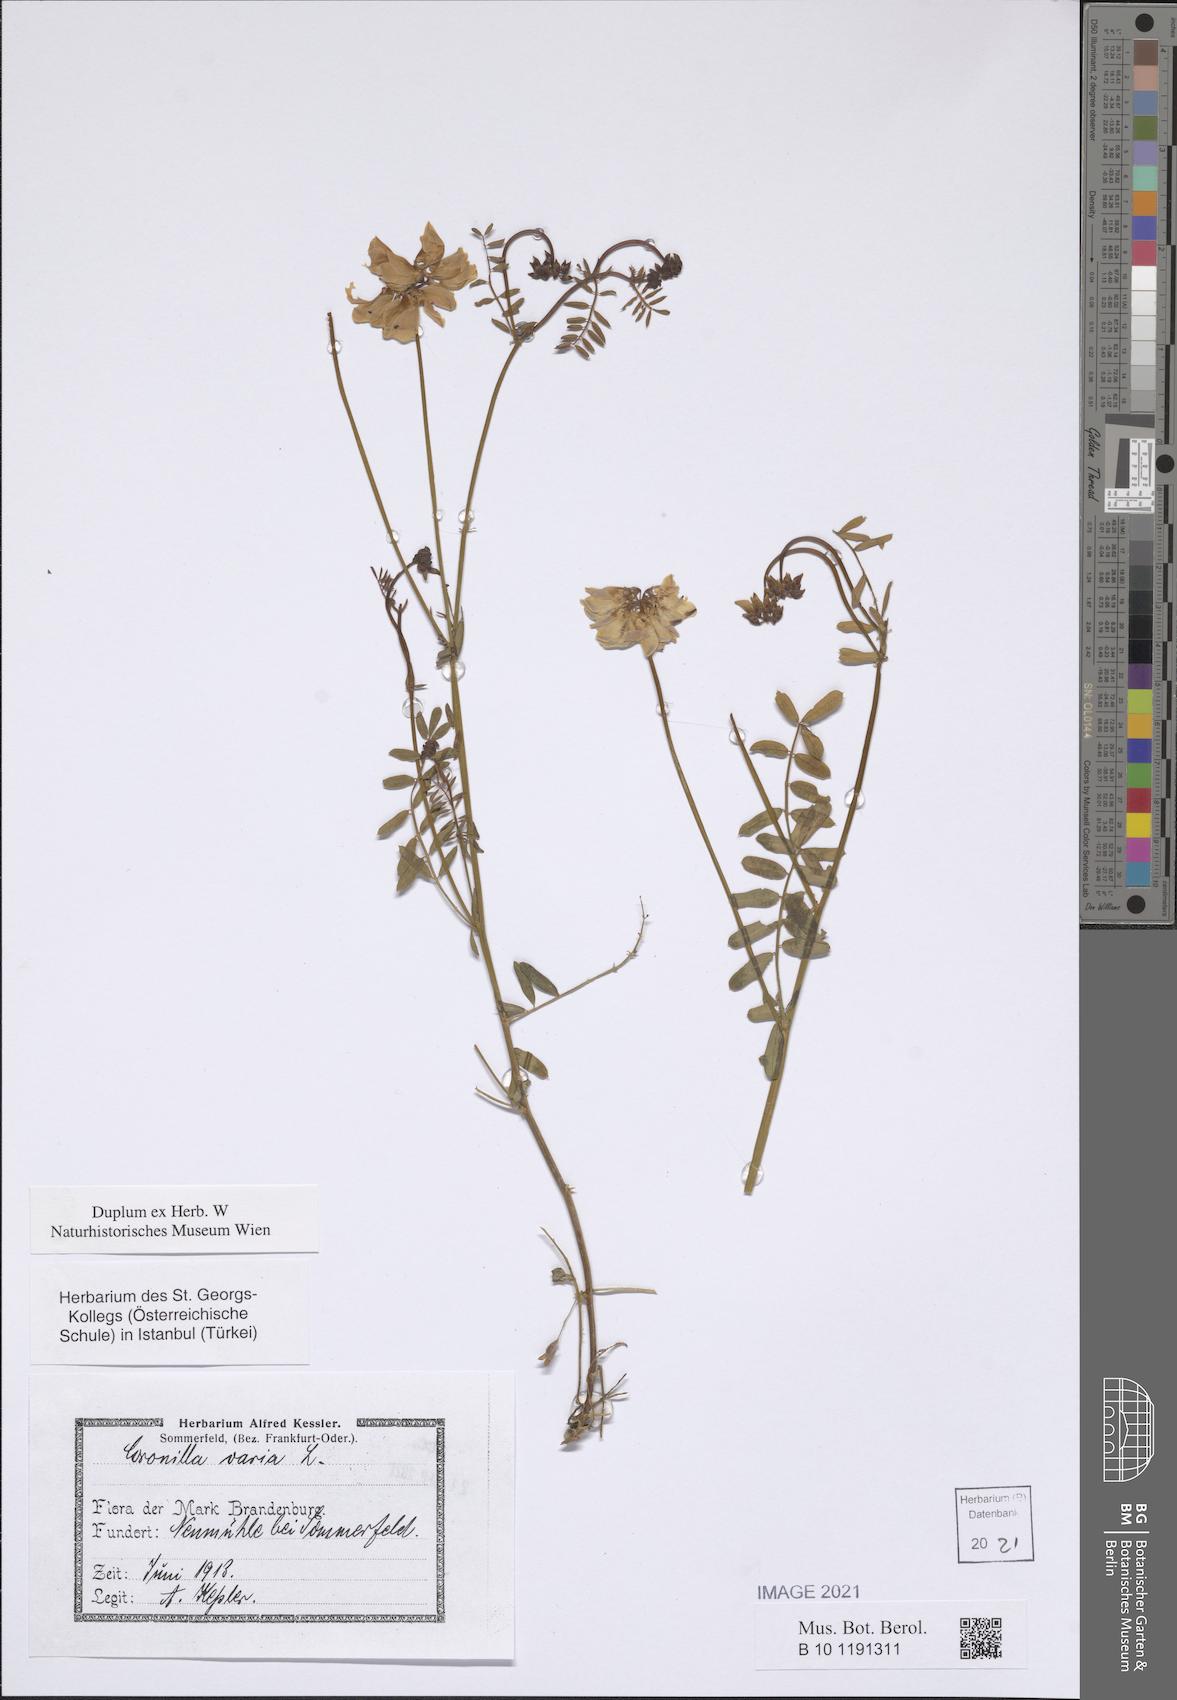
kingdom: Plantae
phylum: Tracheophyta
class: Magnoliopsida
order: Fabales
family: Fabaceae
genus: Coronilla
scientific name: Coronilla varia
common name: Crownvetch
